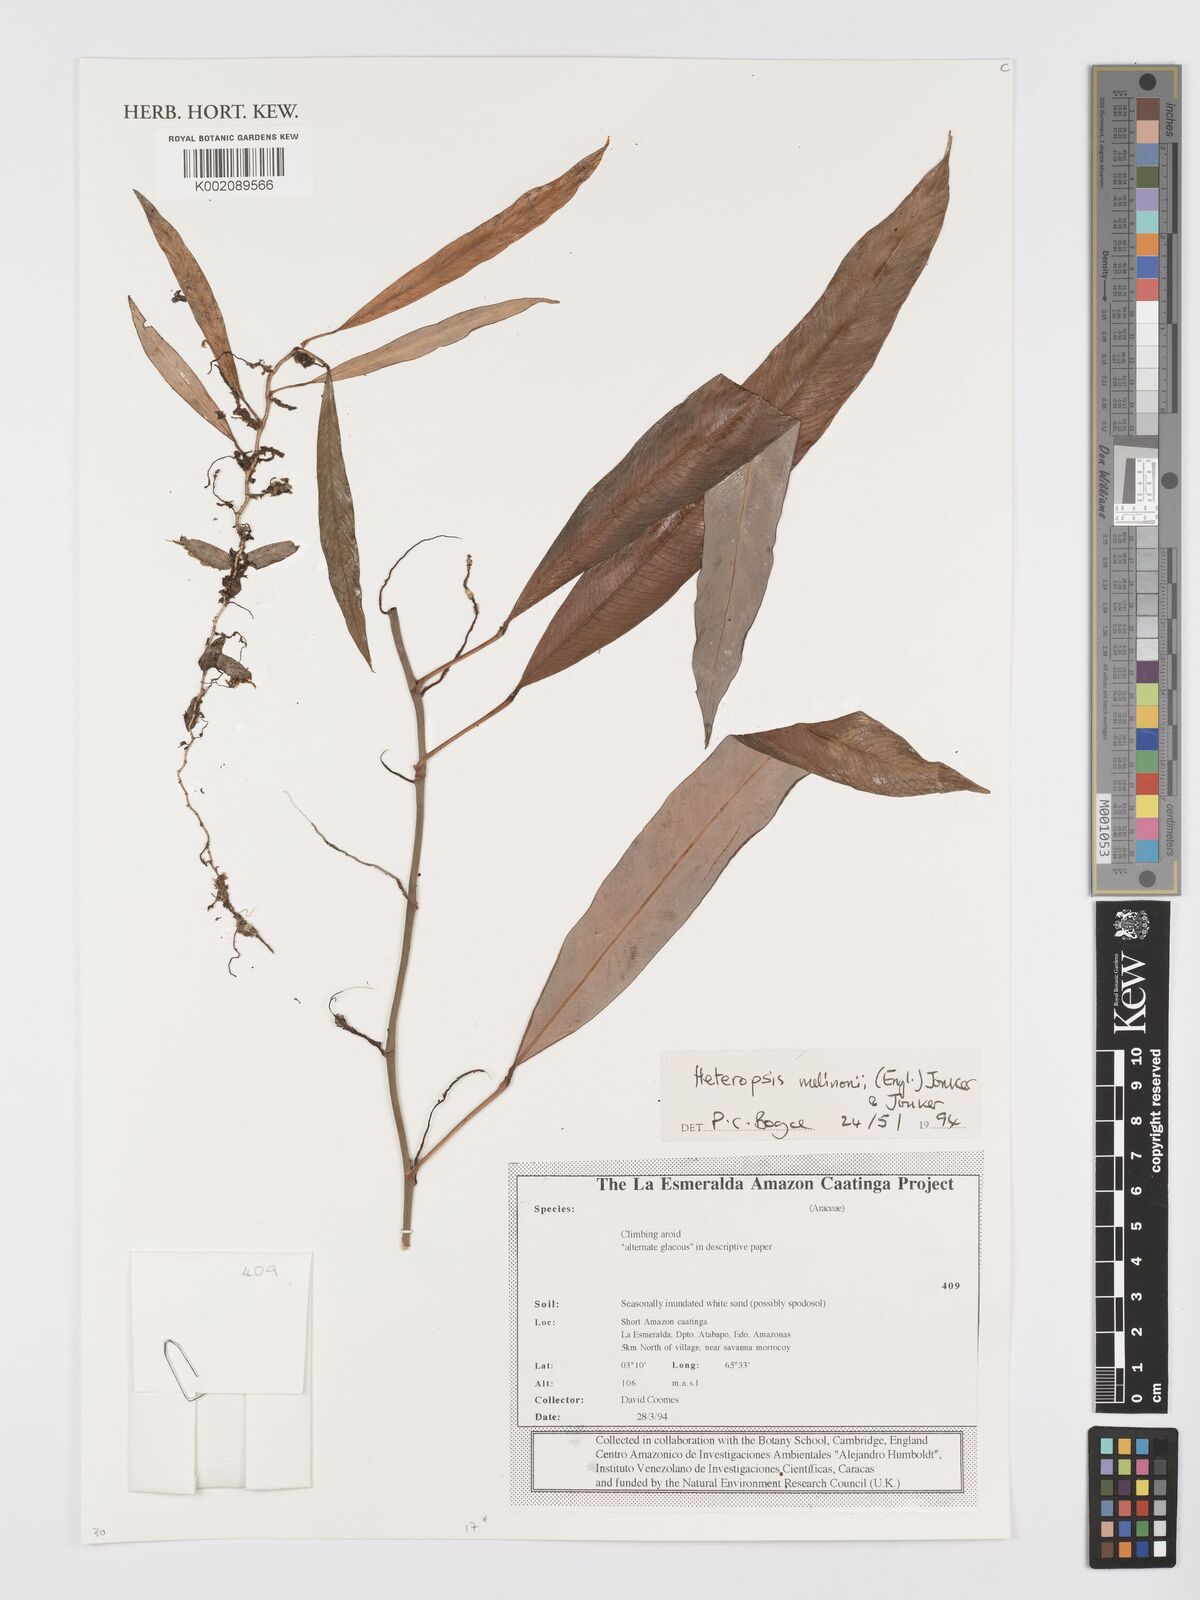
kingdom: Plantae
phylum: Tracheophyta
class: Liliopsida
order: Alismatales
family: Araceae
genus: Heteropsis
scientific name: Heteropsis melinonii
